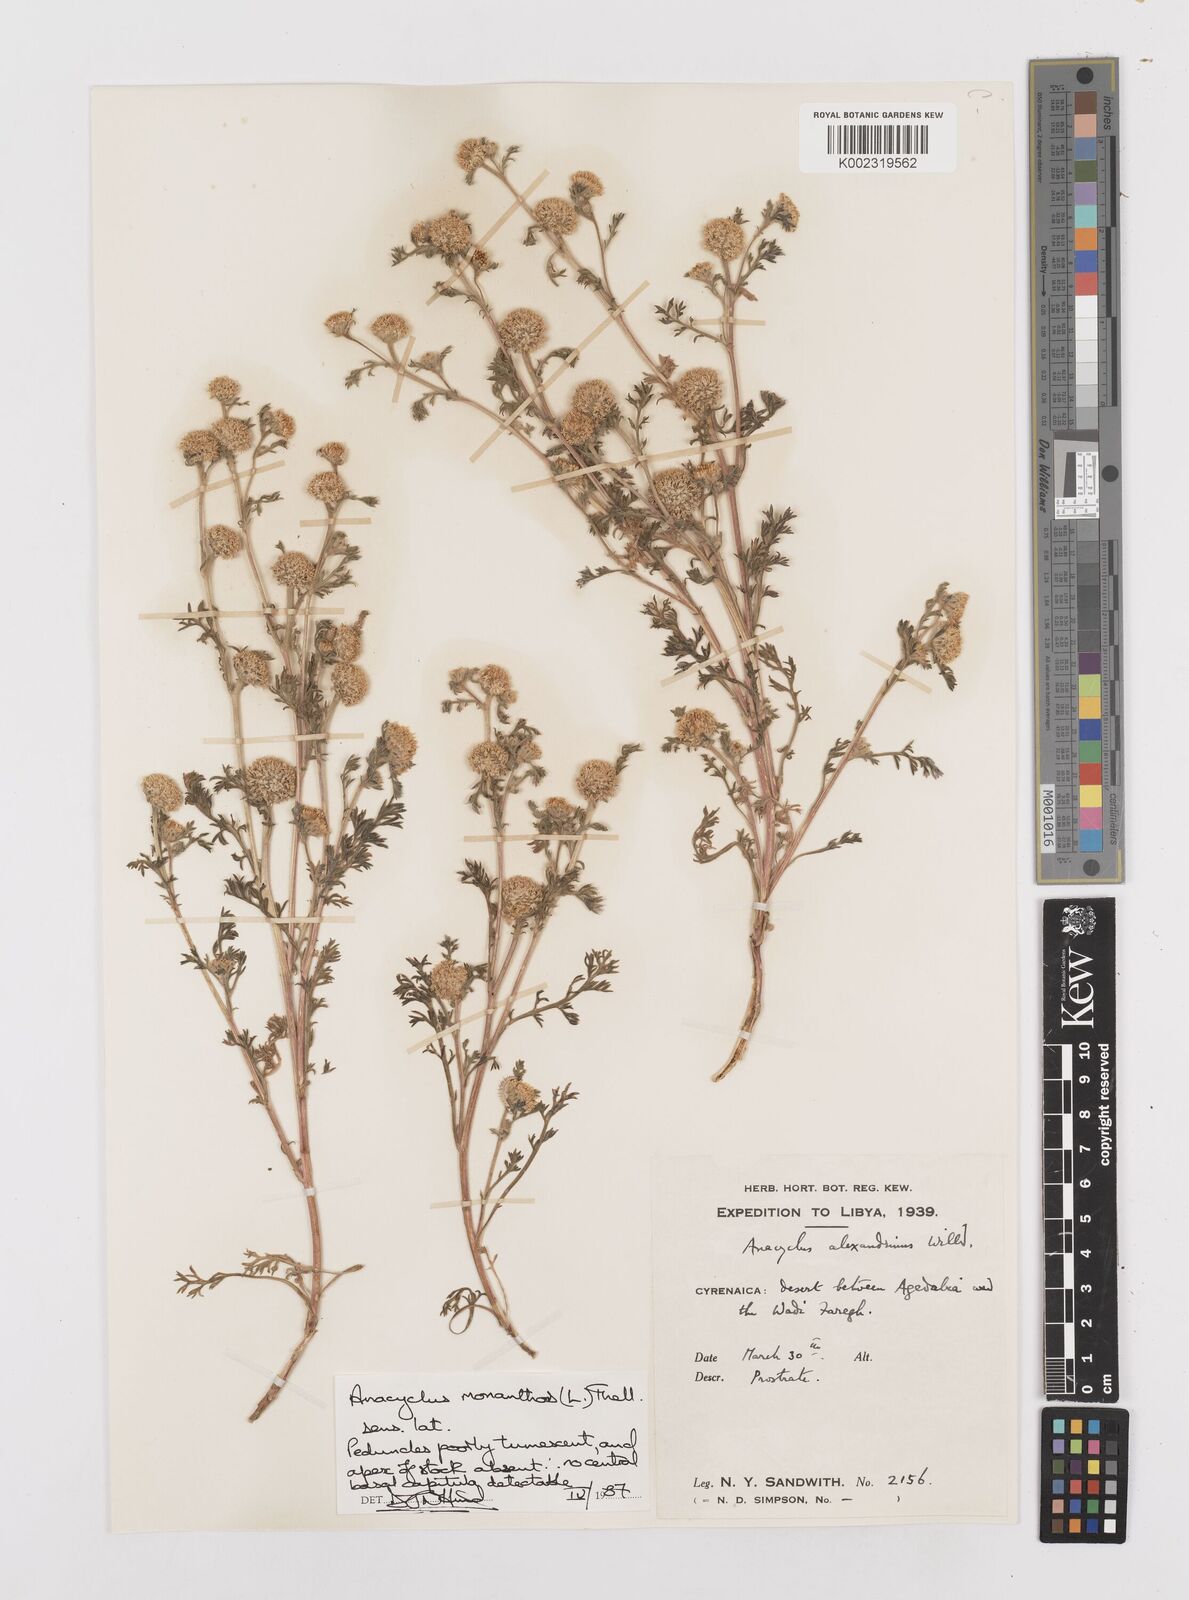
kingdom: Plantae
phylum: Tracheophyta
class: Magnoliopsida
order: Asterales
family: Asteraceae
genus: Anacyclus
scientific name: Anacyclus monanthos
